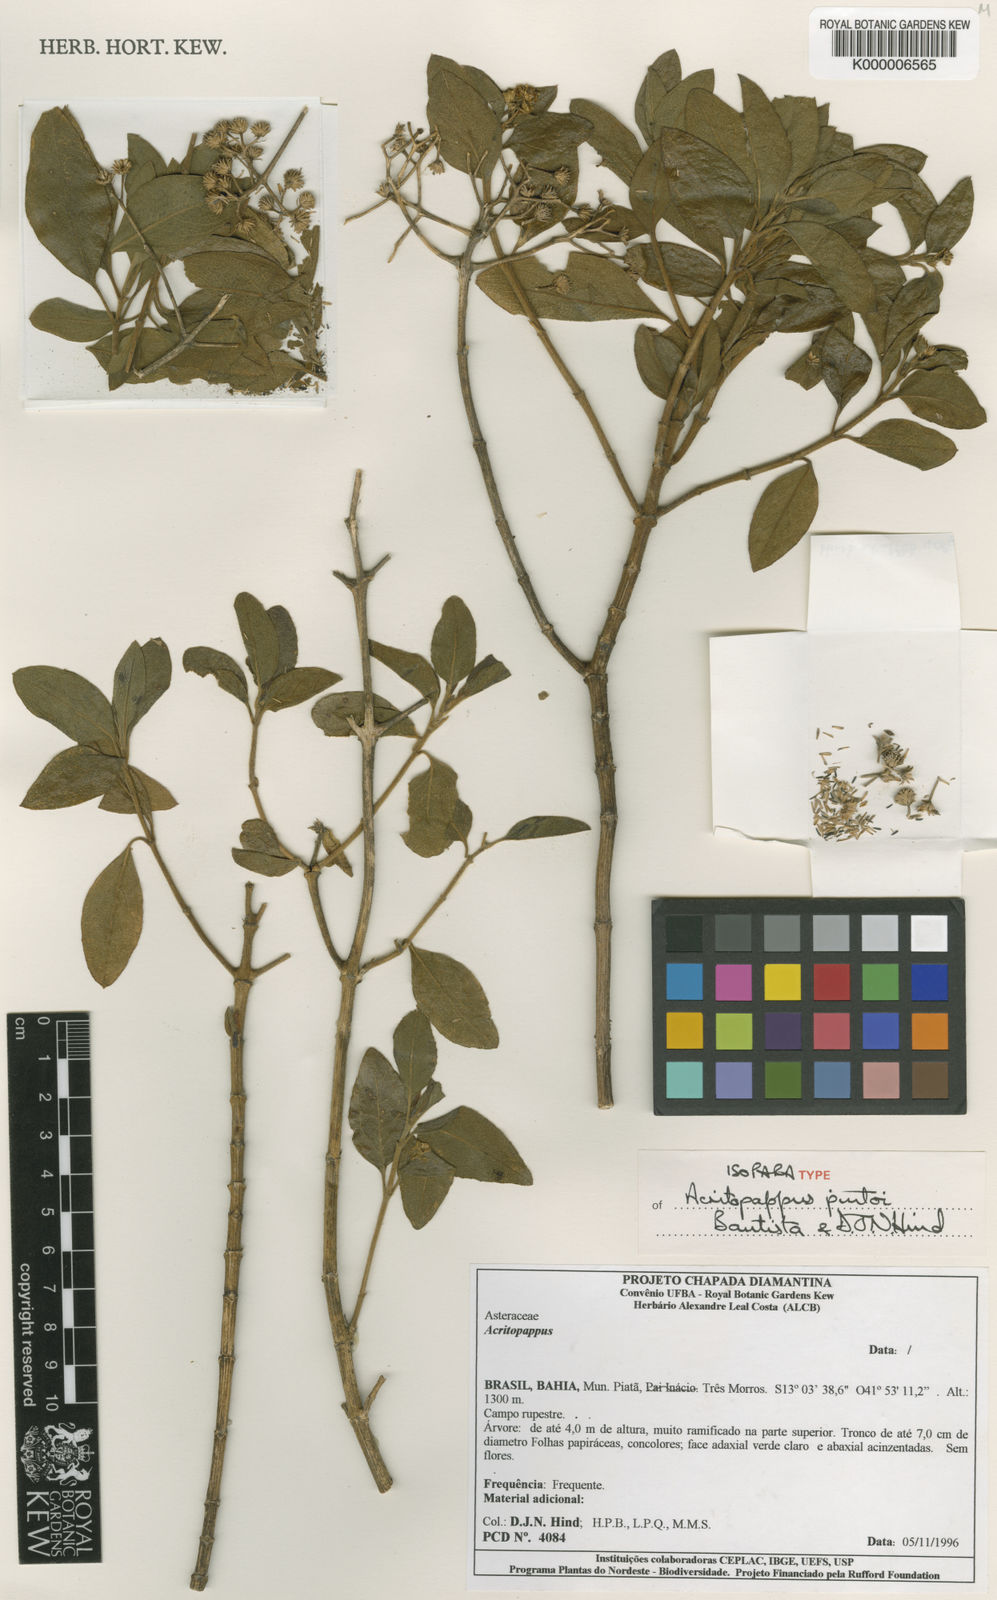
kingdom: Plantae
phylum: Tracheophyta
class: Magnoliopsida
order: Asterales
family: Asteraceae
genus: Acritopappus
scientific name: Acritopappus pintoi
